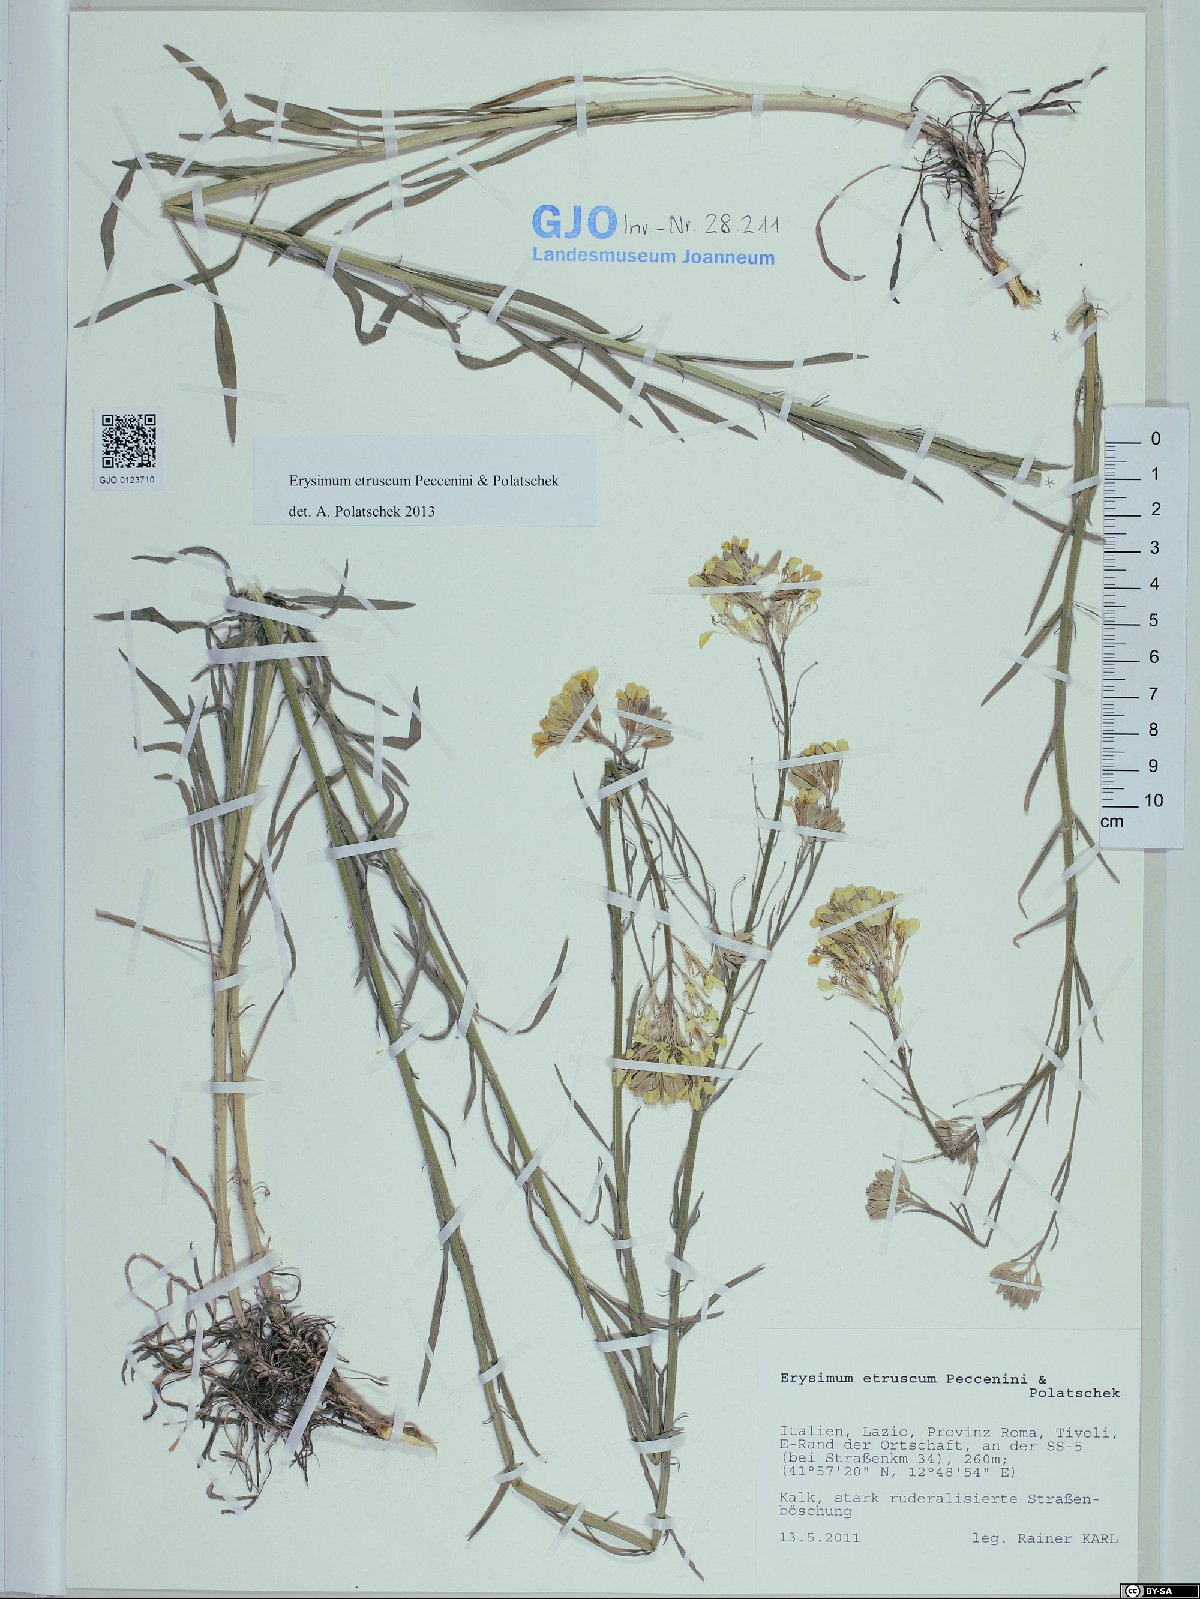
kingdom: Plantae
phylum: Tracheophyta
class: Magnoliopsida
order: Brassicales
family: Brassicaceae
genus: Erysimum
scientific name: Erysimum pseudorhaeticum
